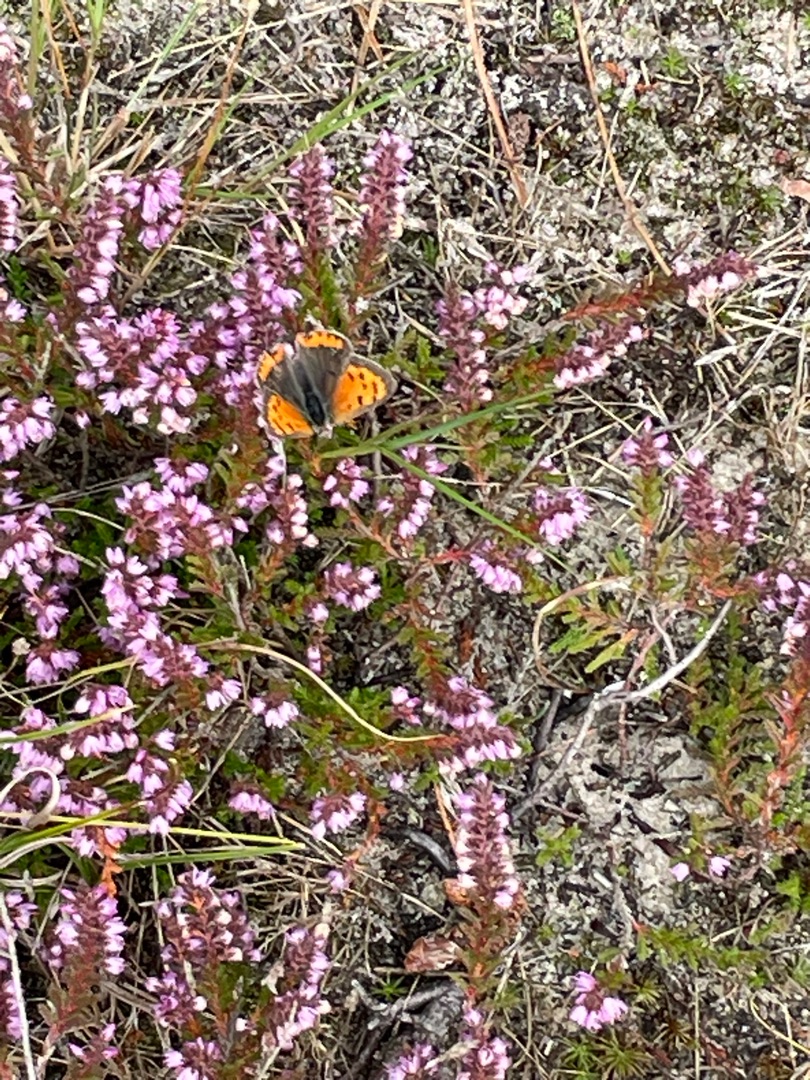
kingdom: Animalia
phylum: Arthropoda
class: Insecta
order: Lepidoptera
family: Lycaenidae
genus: Lycaena
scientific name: Lycaena phlaeas
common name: Lille ildfugl
